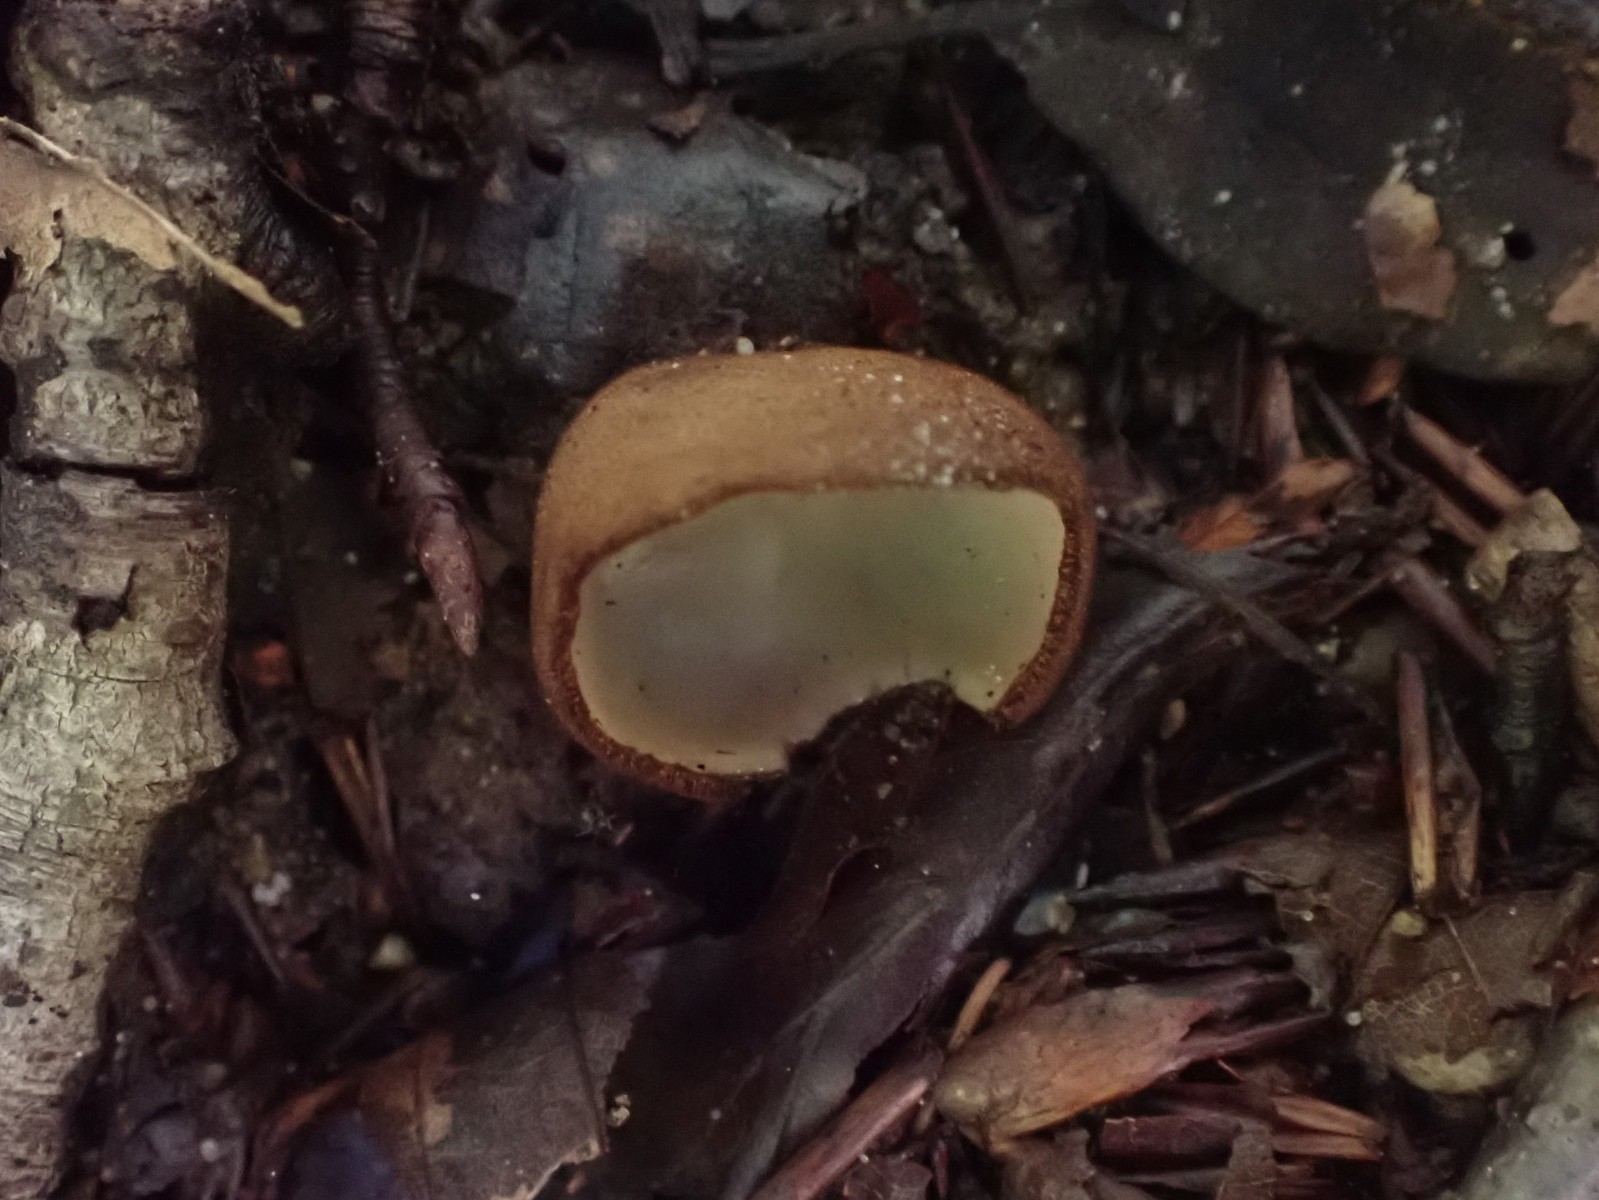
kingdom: Fungi
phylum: Ascomycota
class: Pezizomycetes
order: Pezizales
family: Pyronemataceae
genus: Humaria
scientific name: Humaria hemisphaerica
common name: halvkugleformet børstebæger
